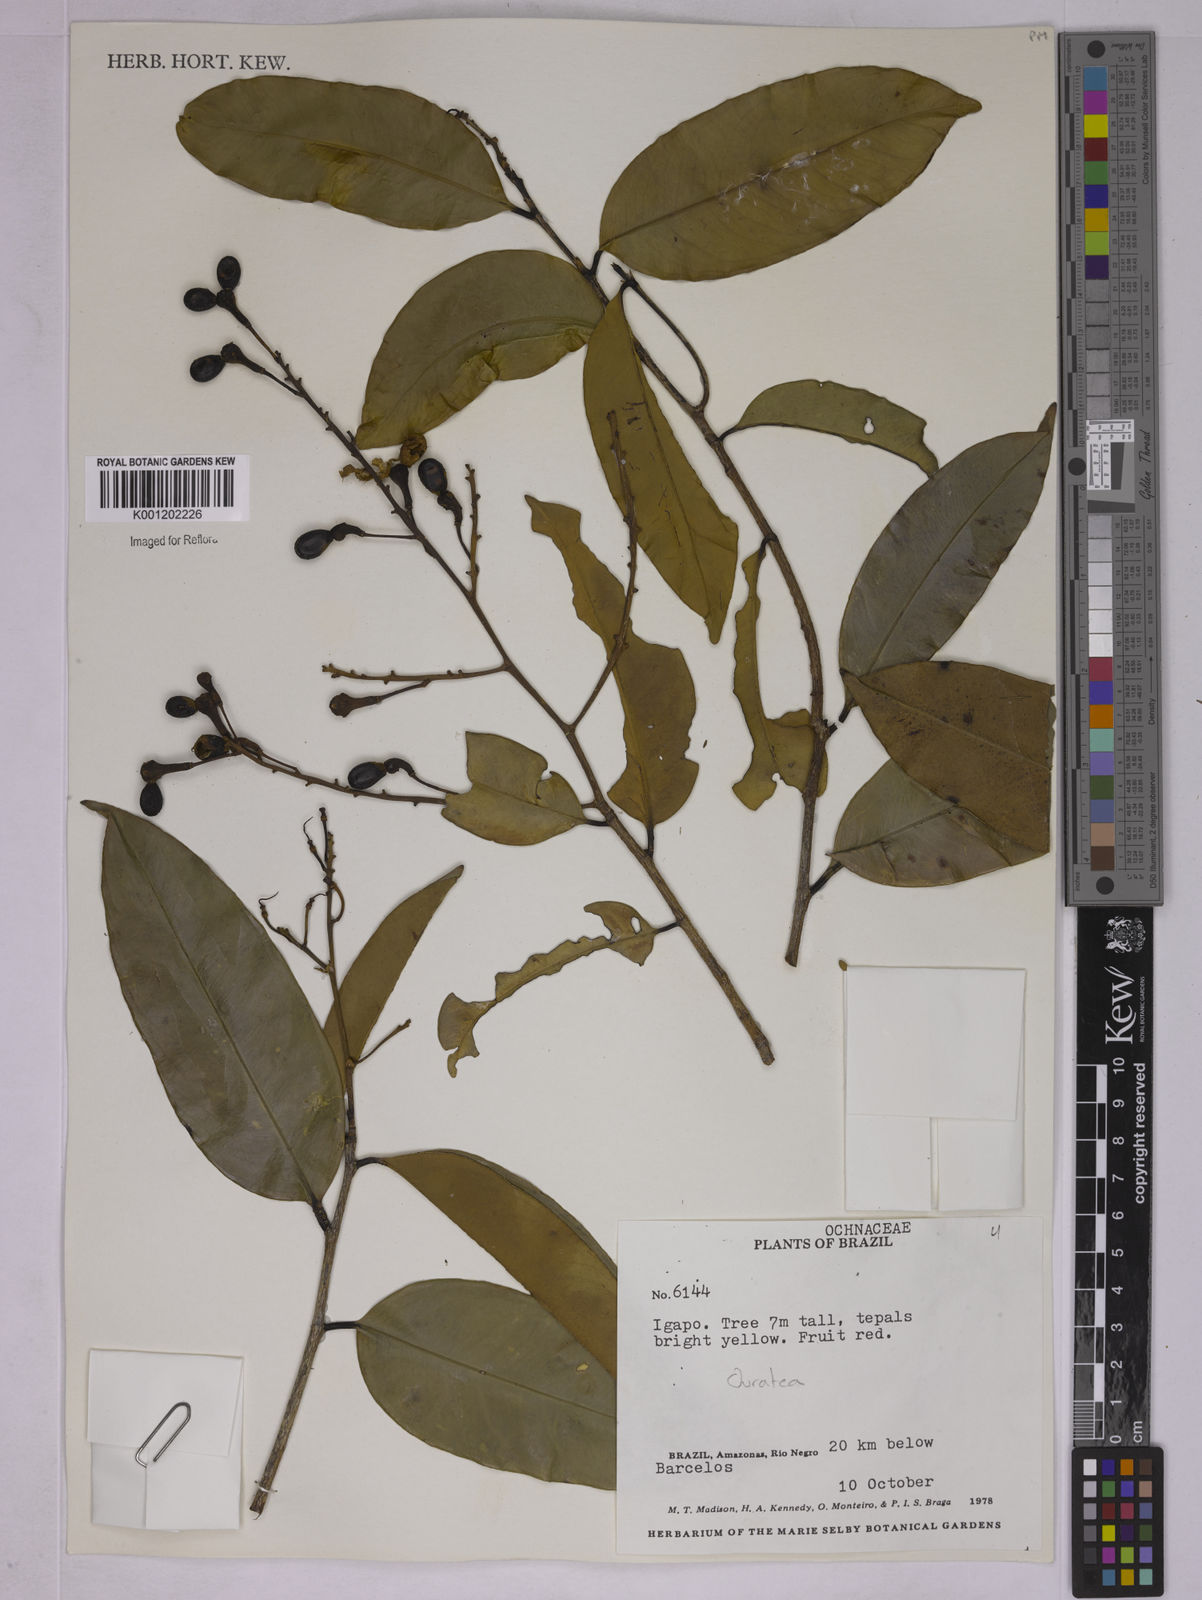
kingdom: Plantae
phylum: Tracheophyta
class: Magnoliopsida
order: Malpighiales
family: Ochnaceae
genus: Ouratea
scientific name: Ouratea
